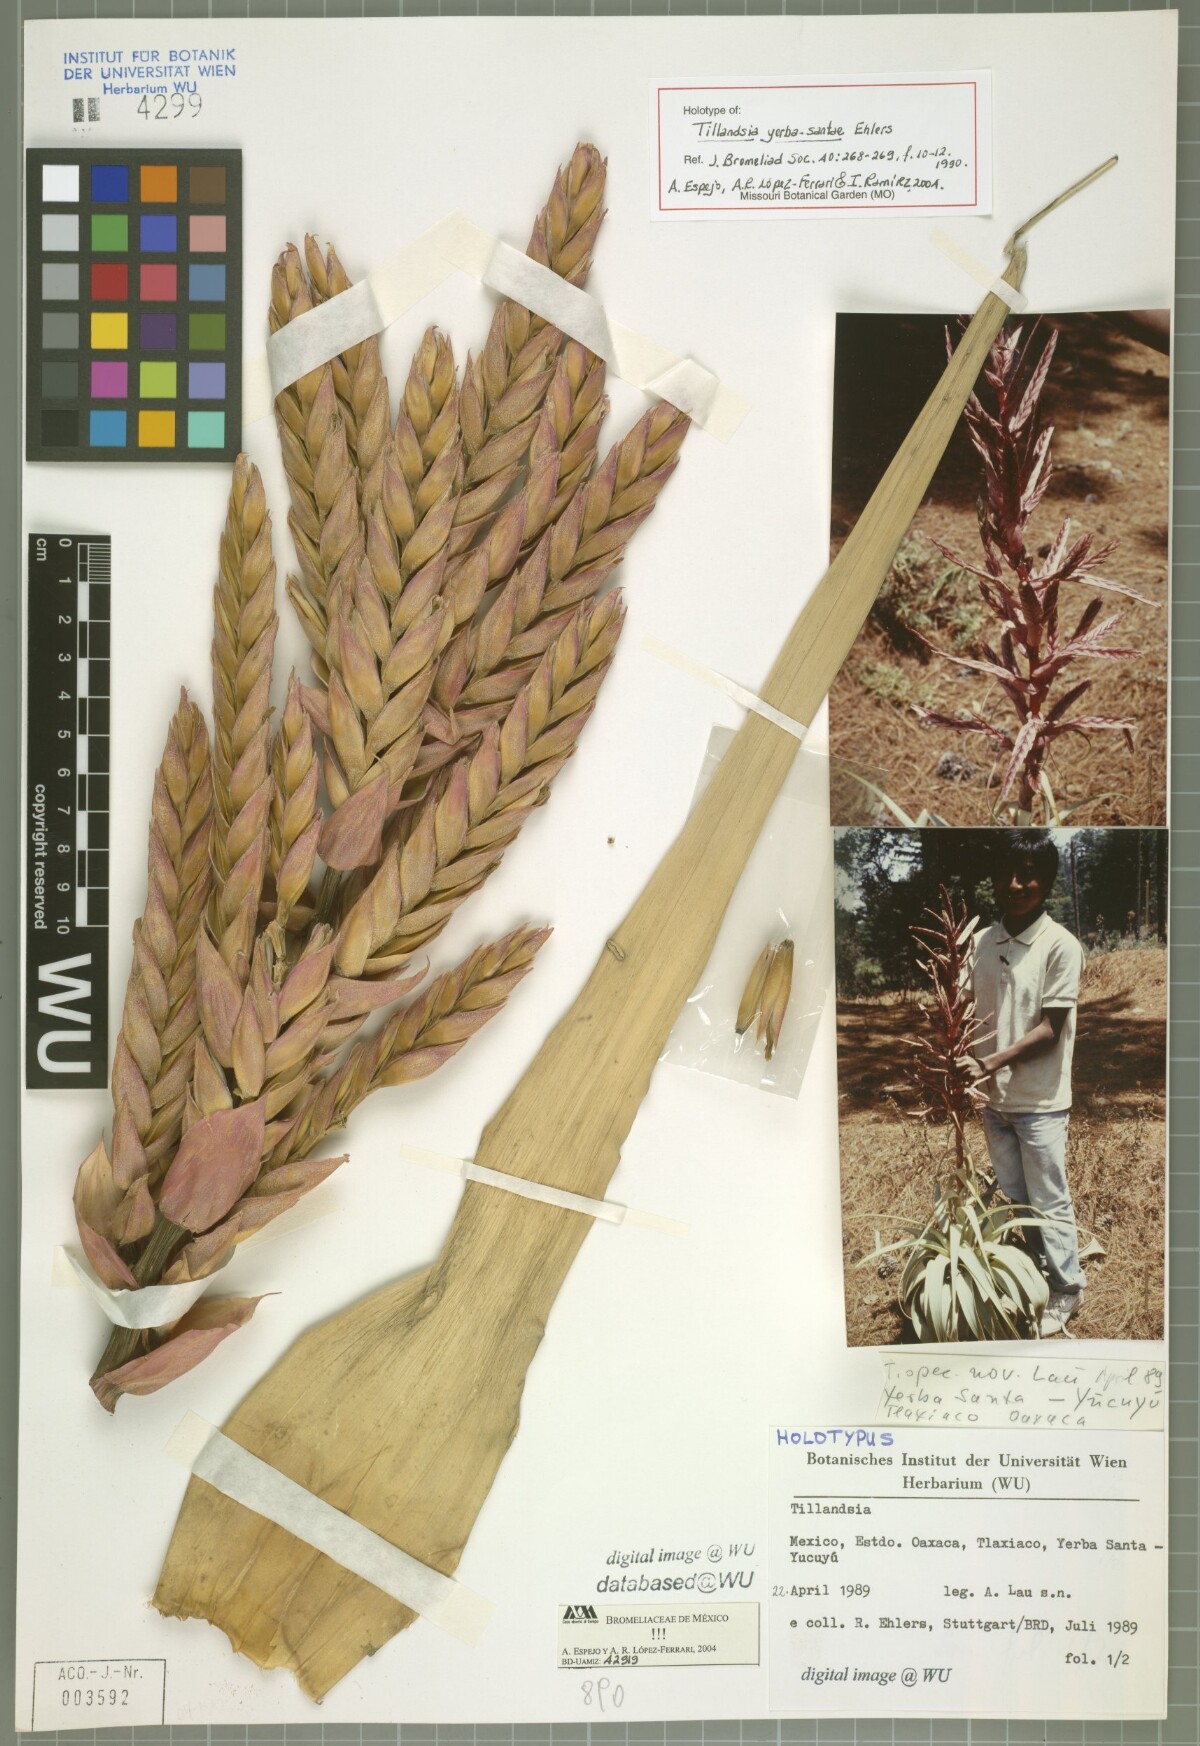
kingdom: Plantae
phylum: Tracheophyta
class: Liliopsida
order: Poales
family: Bromeliaceae
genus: Tillandsia
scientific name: Tillandsia yerba-santae
